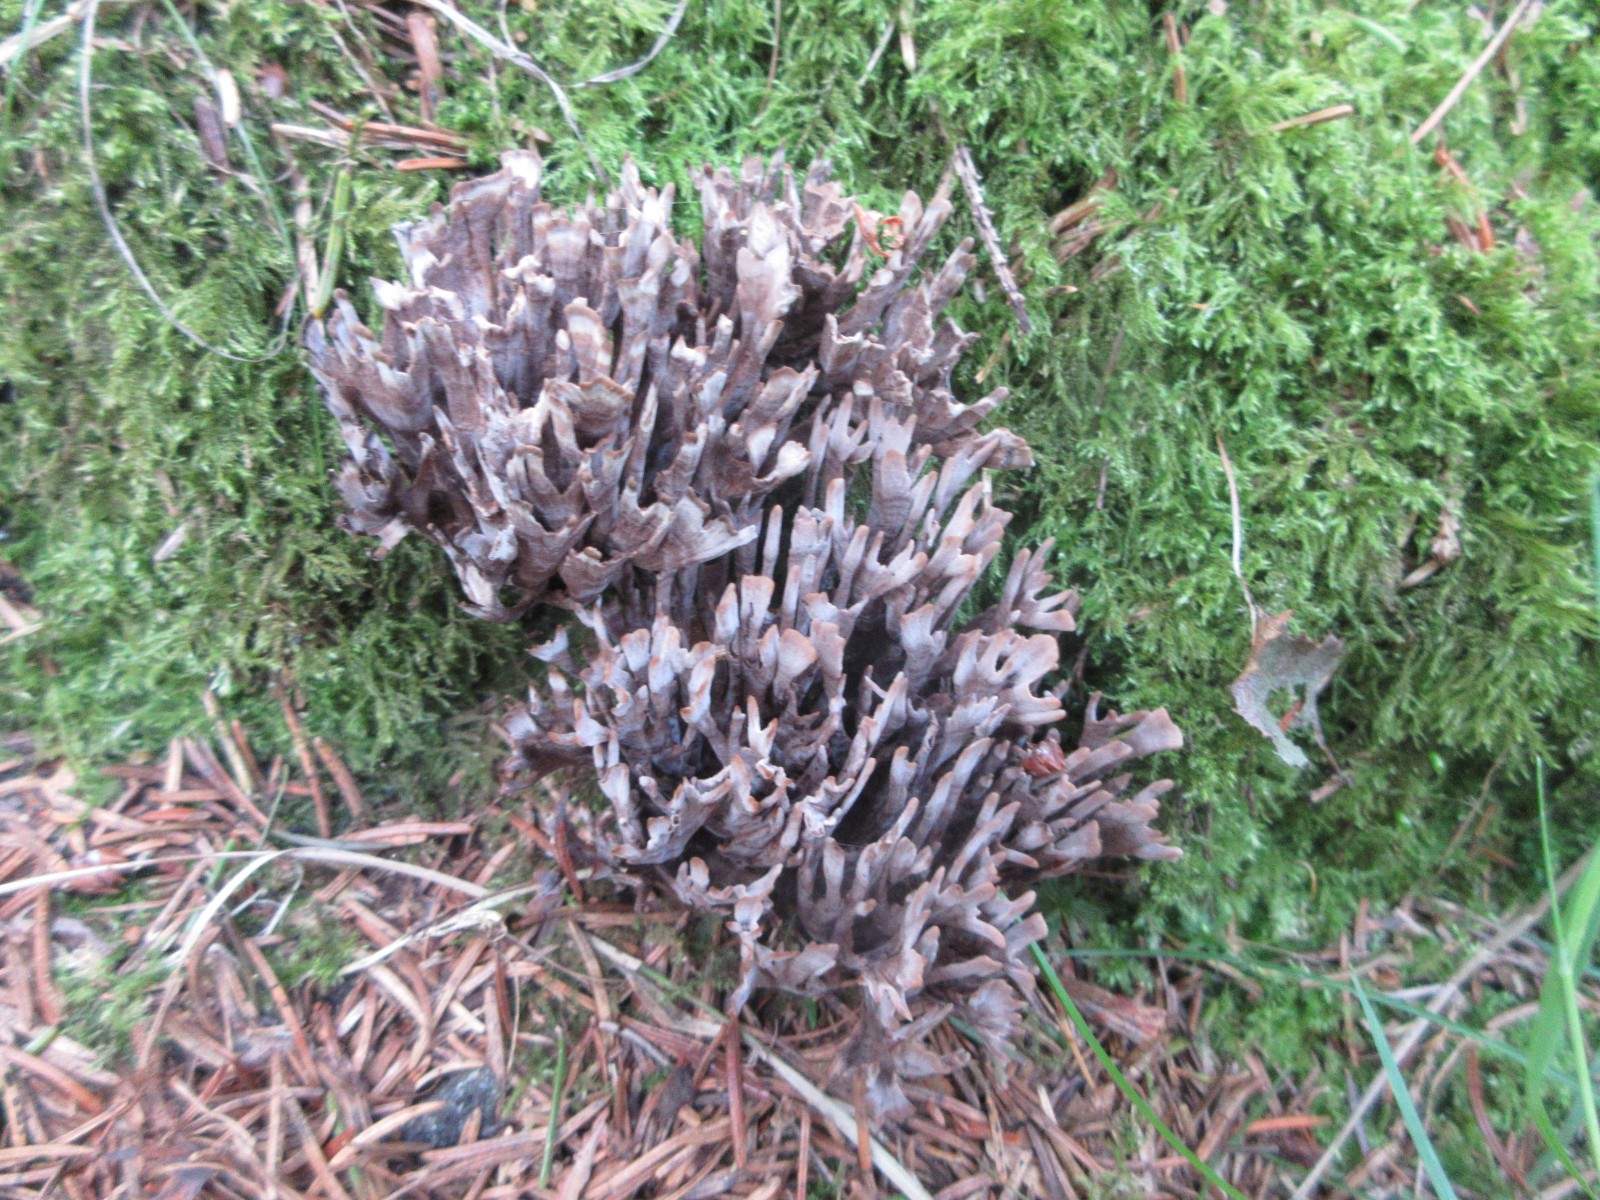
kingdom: Fungi
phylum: Basidiomycota
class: Agaricomycetes
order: Thelephorales
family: Thelephoraceae
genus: Thelephora
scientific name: Thelephora palmata
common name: grenet frynsesvamp
